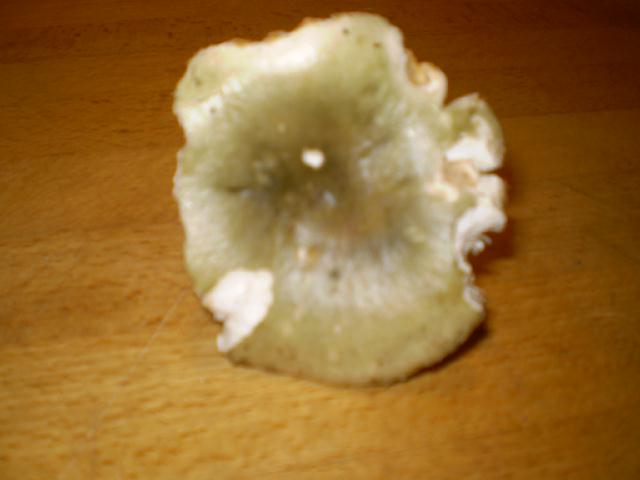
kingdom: Fungi
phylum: Basidiomycota
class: Agaricomycetes
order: Russulales
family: Russulaceae
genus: Russula
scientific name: Russula aeruginea
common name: græsgrøn skørhat
